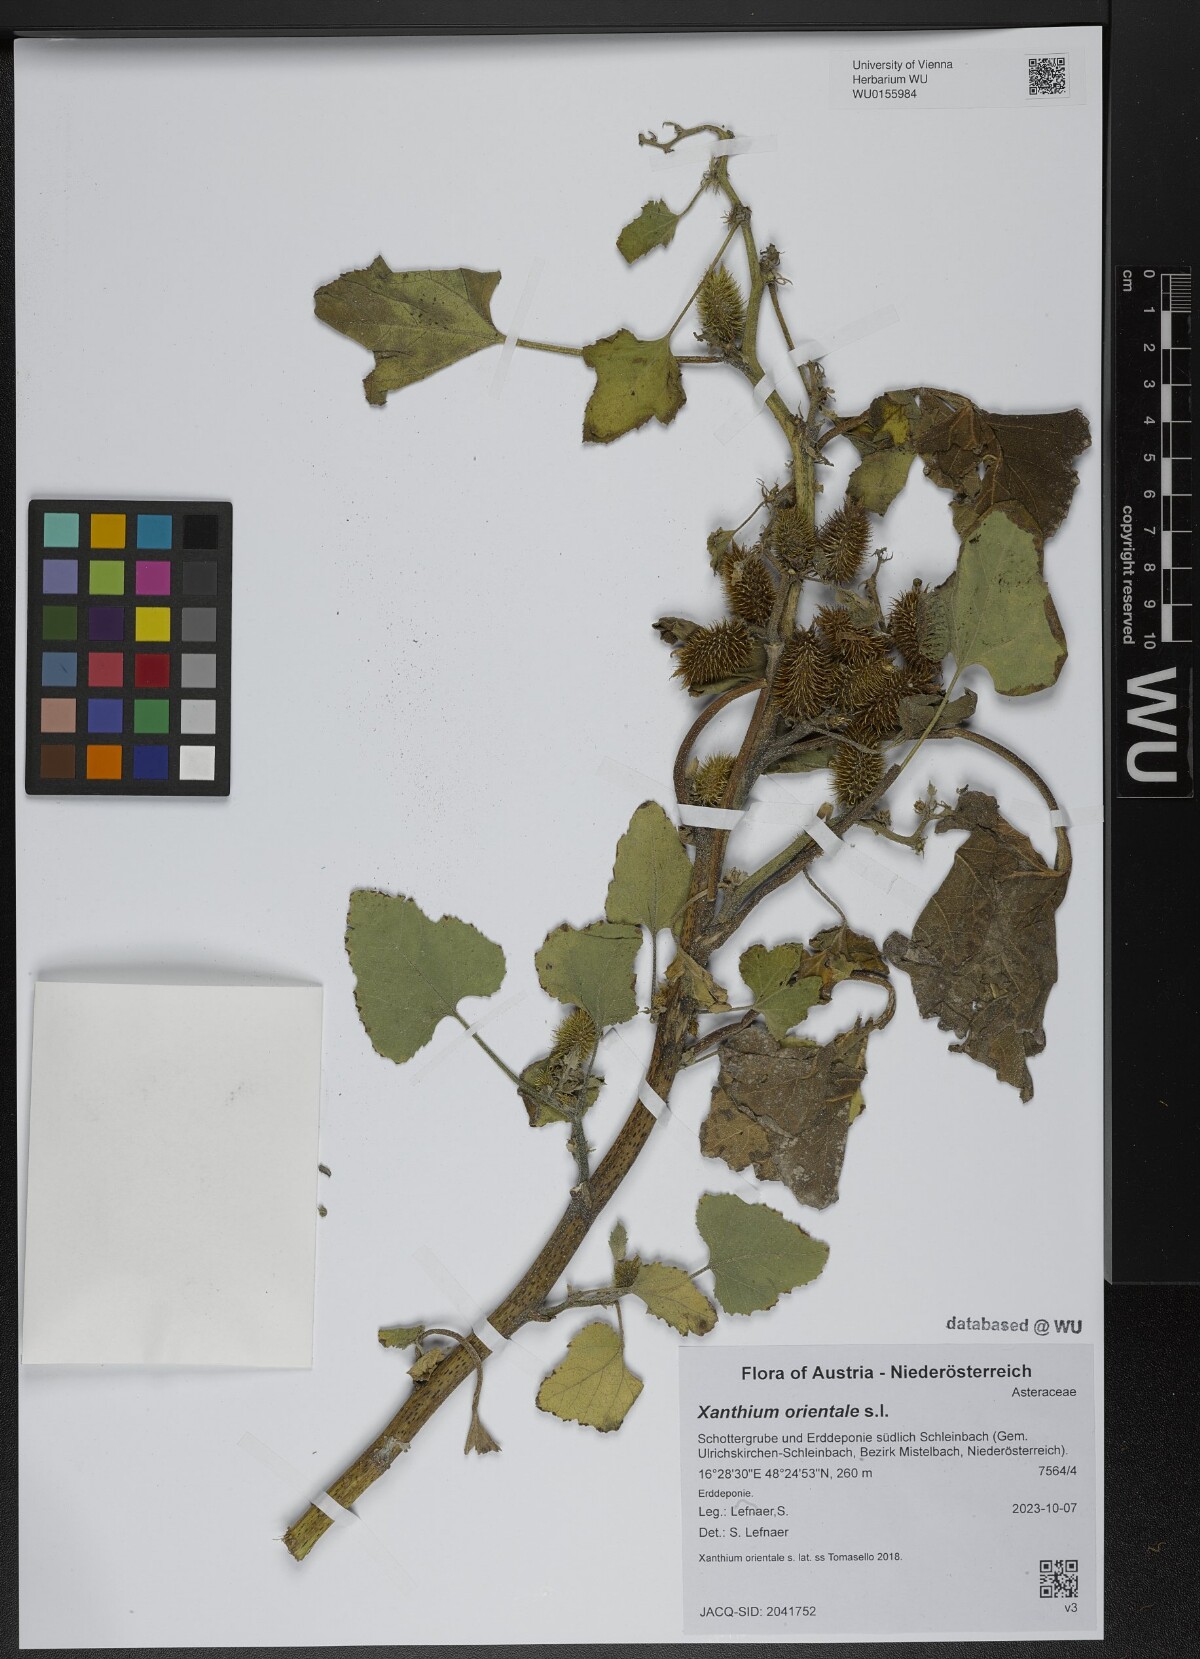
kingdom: Plantae
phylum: Tracheophyta
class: Magnoliopsida
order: Asterales
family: Asteraceae
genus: Xanthium
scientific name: Xanthium orientale
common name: Californian burr
